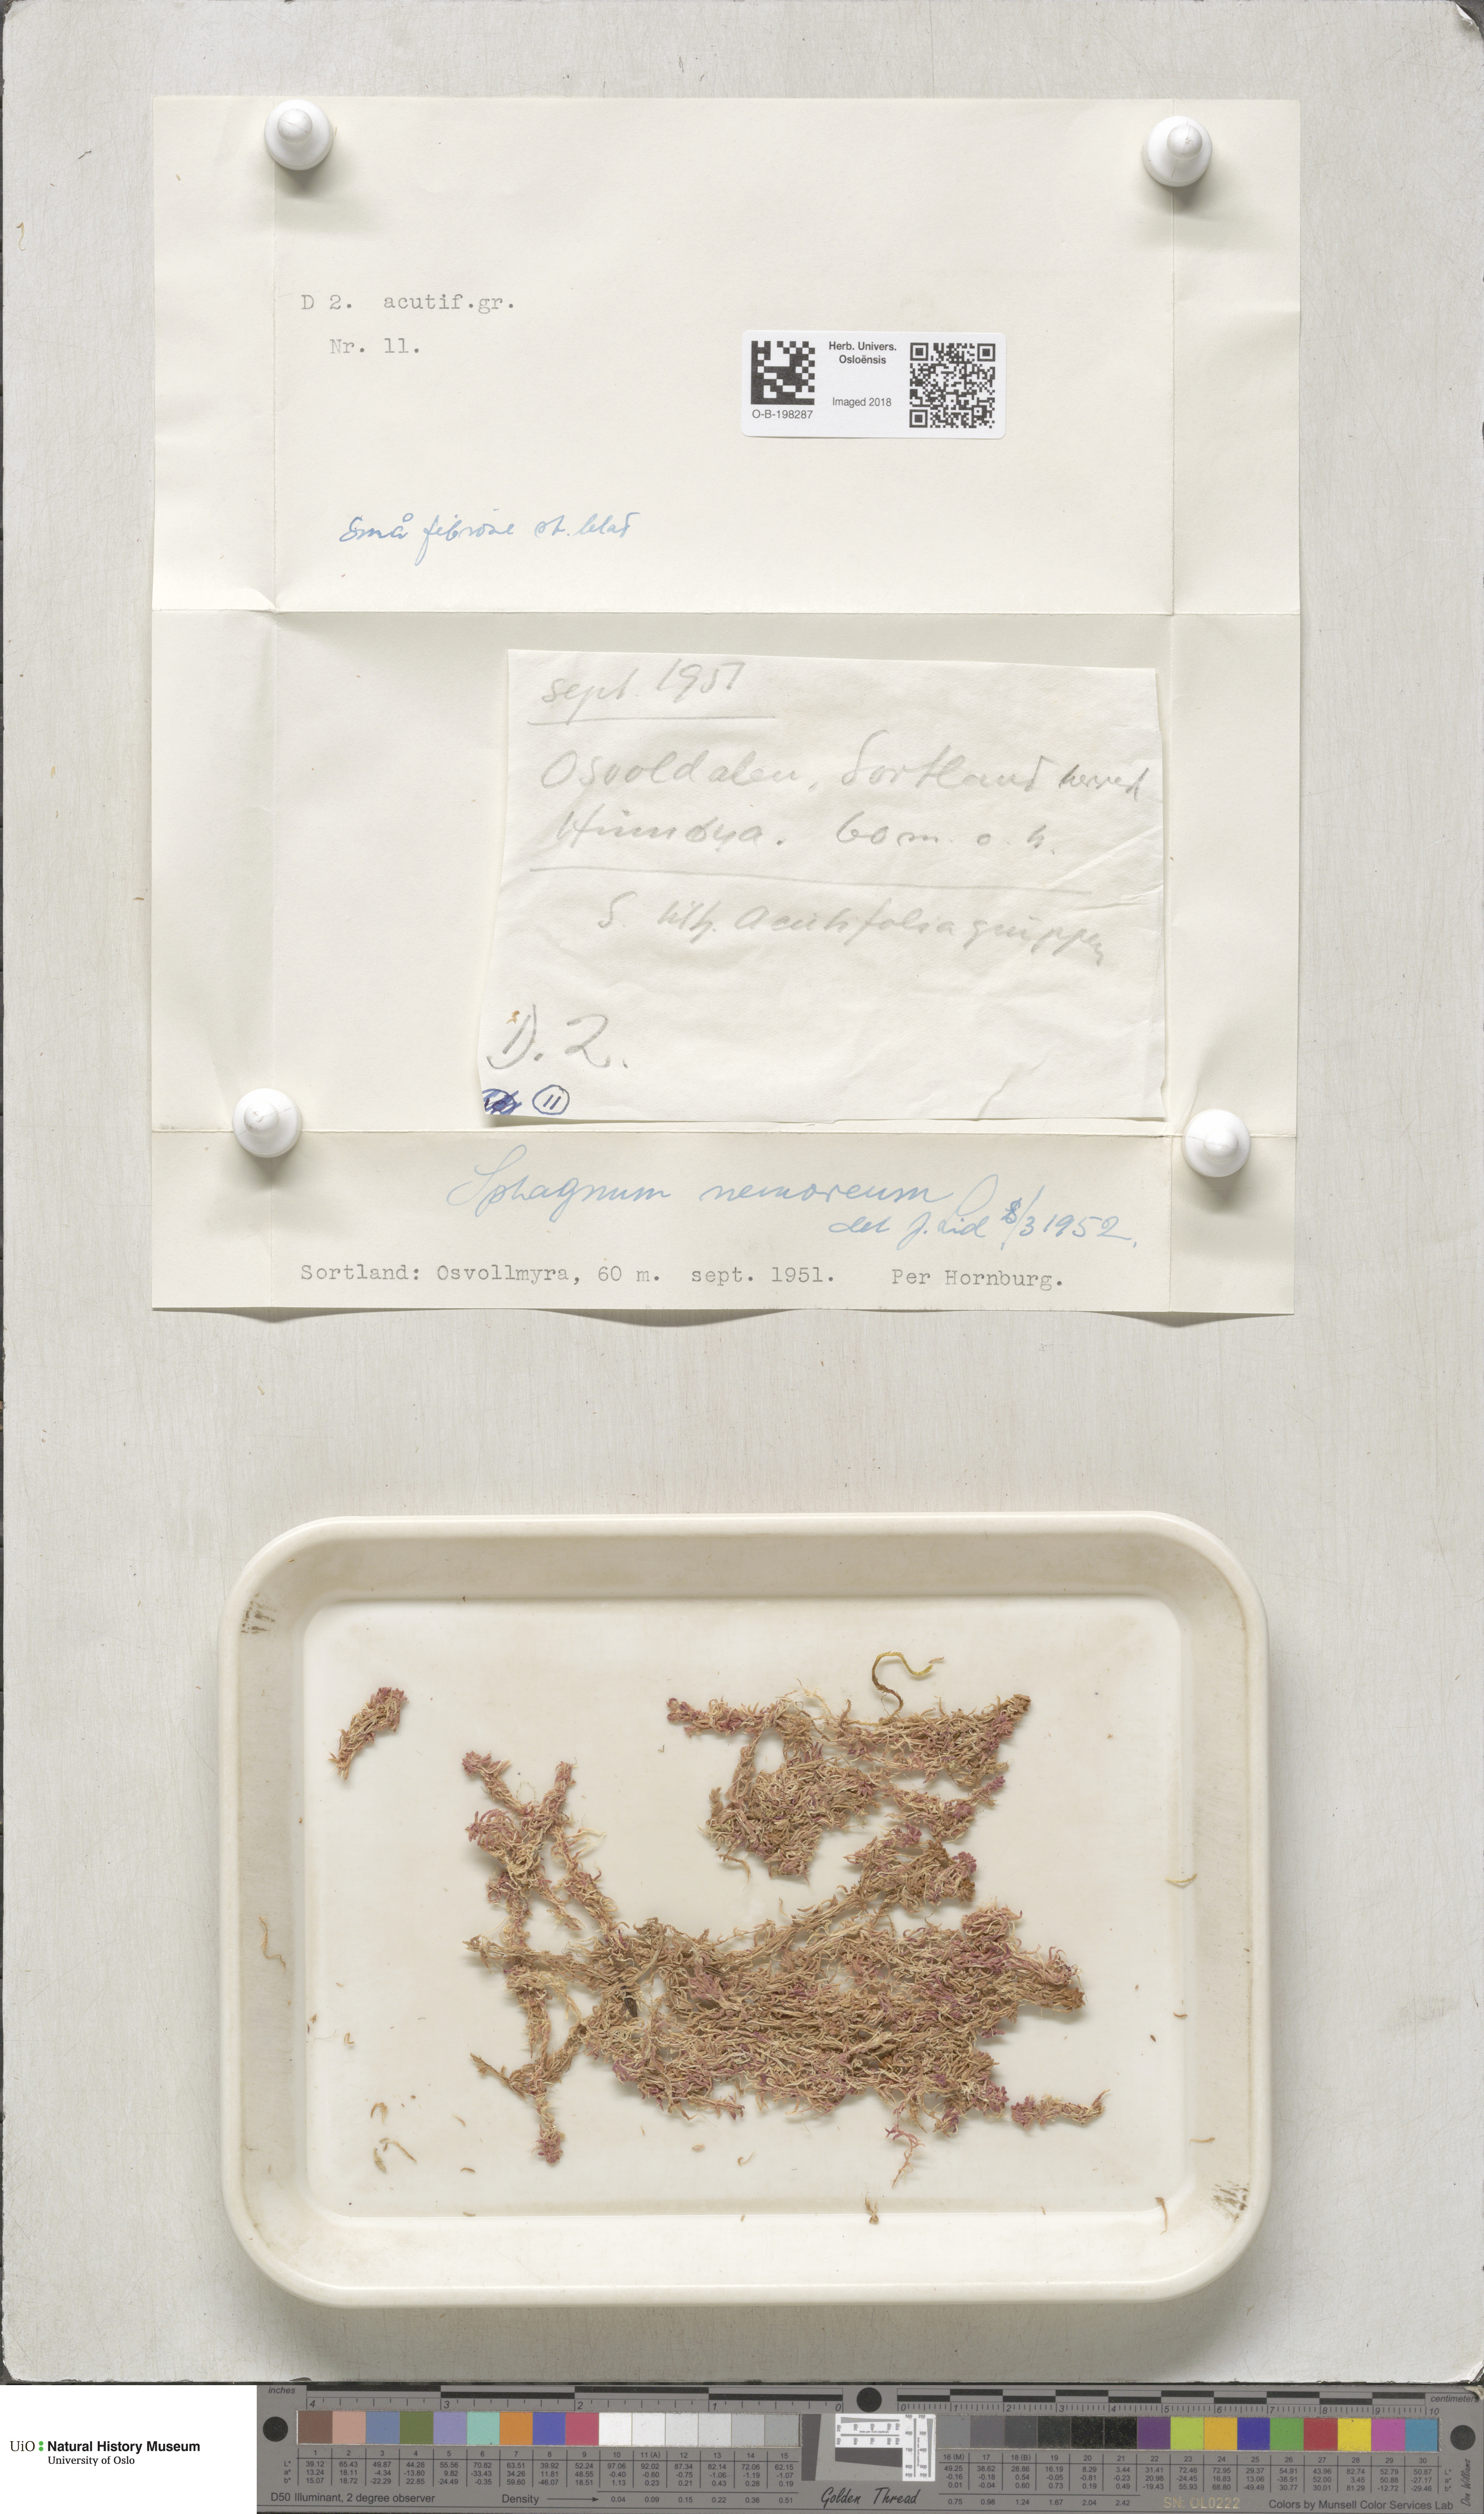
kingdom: Plantae
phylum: Bryophyta
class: Sphagnopsida
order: Sphagnales
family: Sphagnaceae
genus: Sphagnum
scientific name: Sphagnum capillifolium
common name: Small red peat moss
